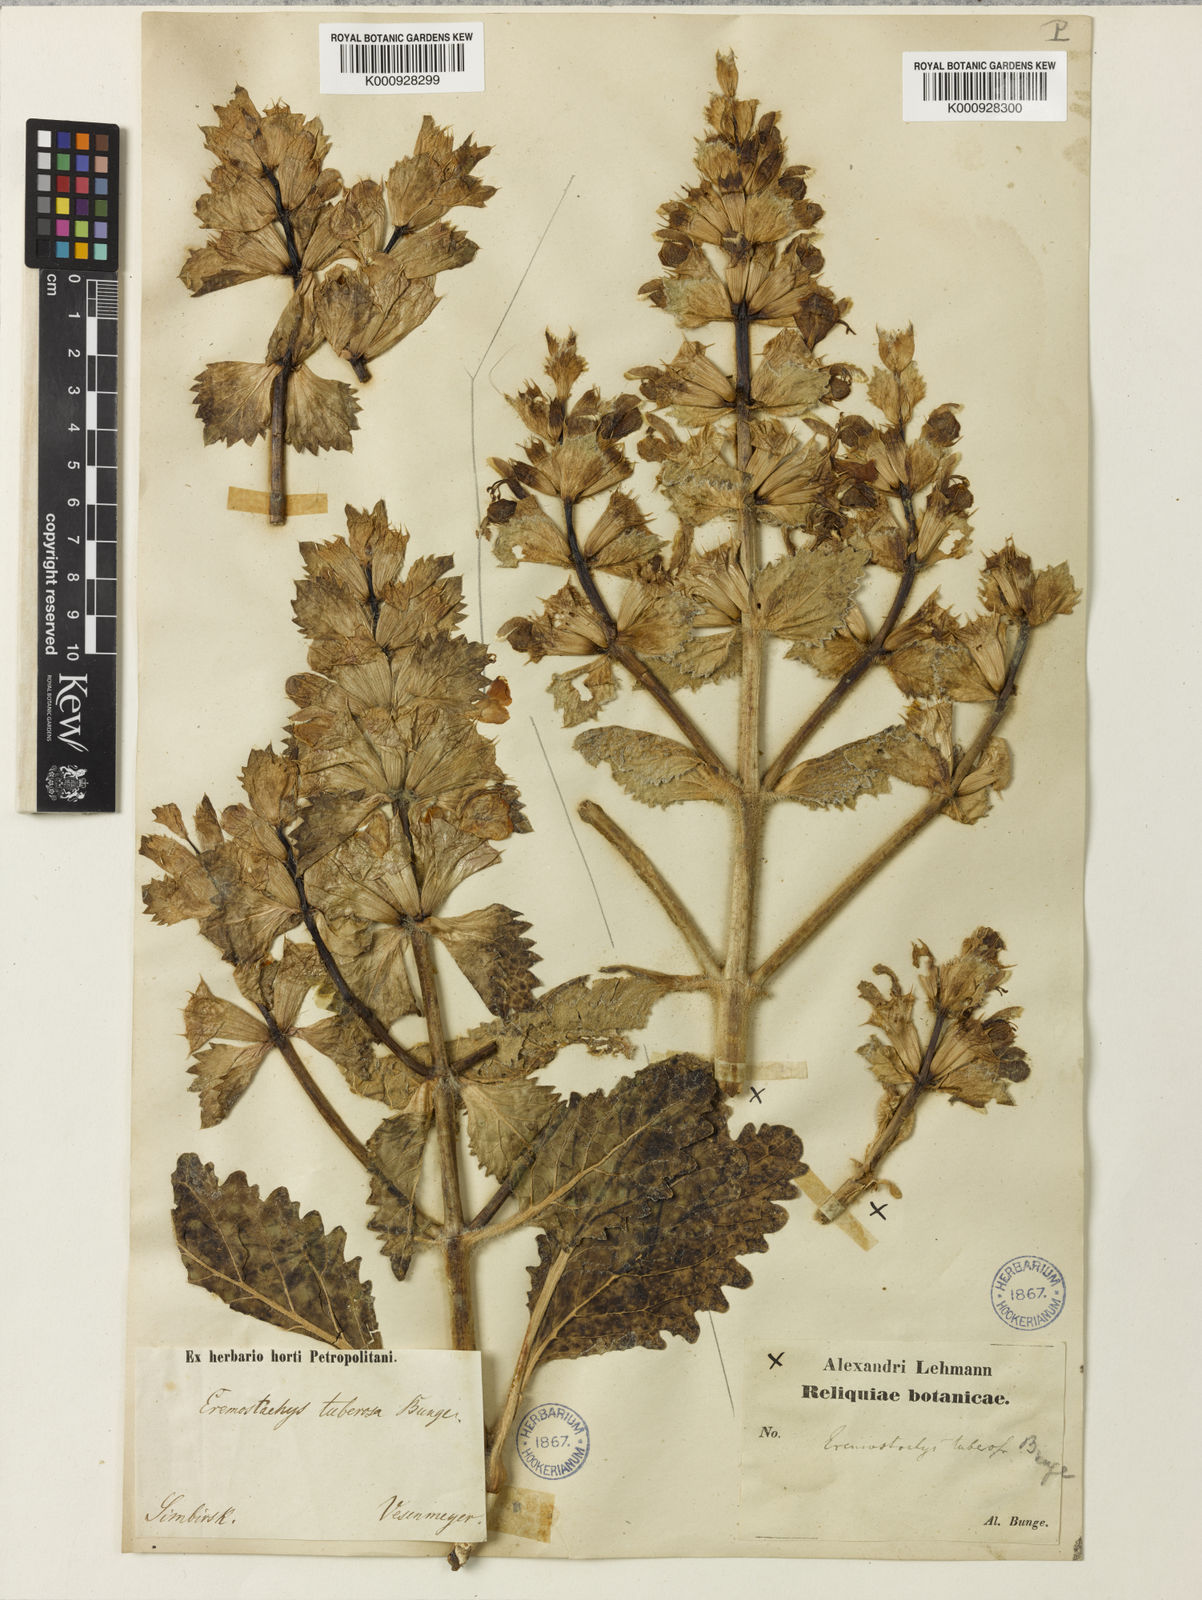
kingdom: Plantae
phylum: Tracheophyta
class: Magnoliopsida
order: Lamiales
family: Lamiaceae
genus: Phlomoides
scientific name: Phlomoides uralensis
